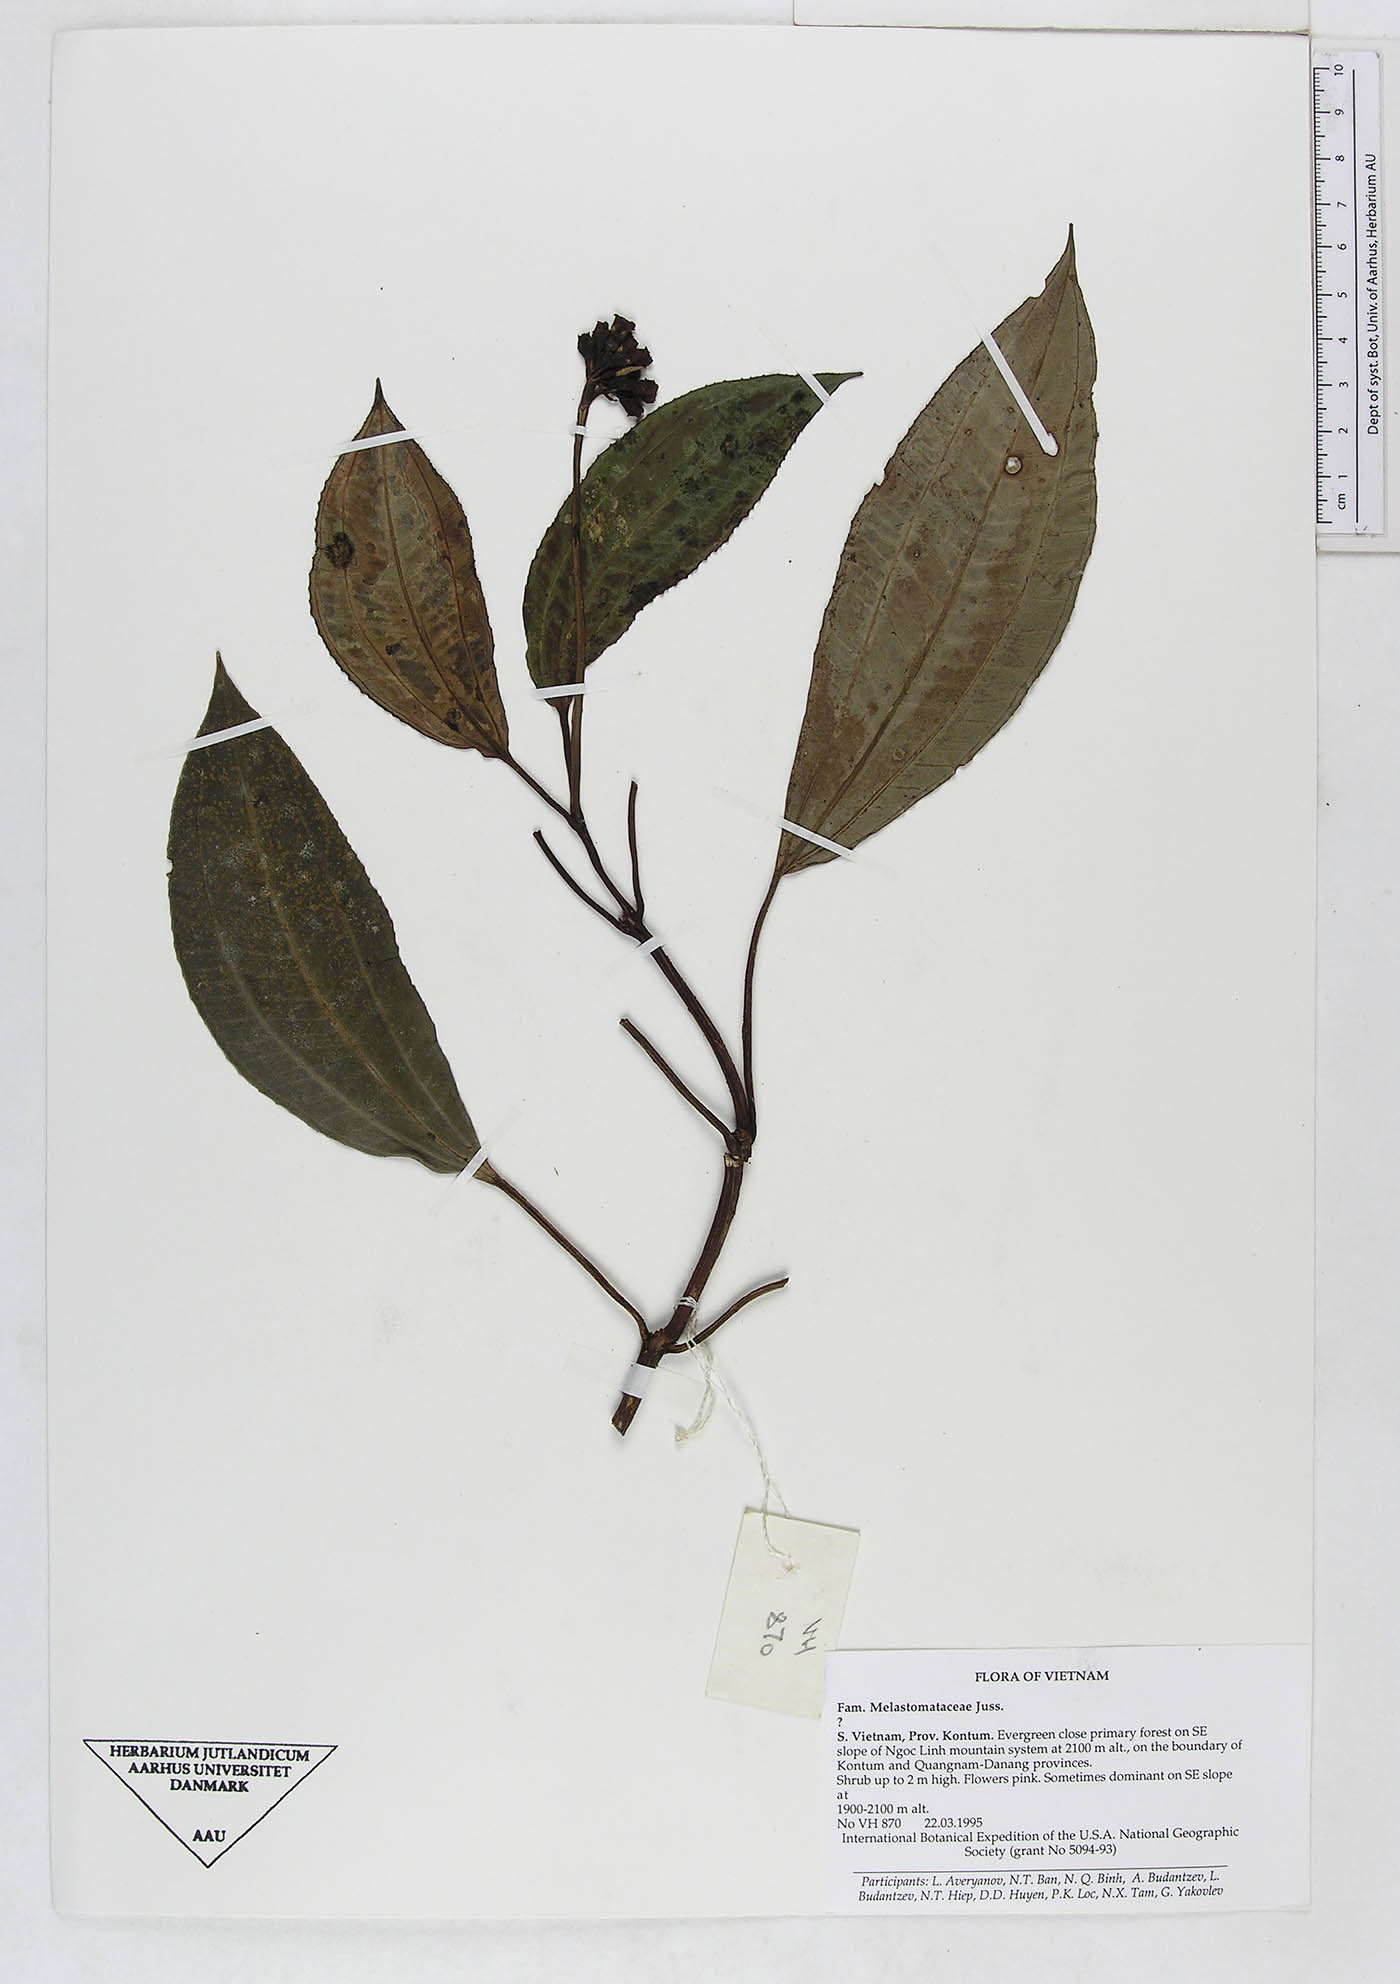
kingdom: Plantae
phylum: Tracheophyta
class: Magnoliopsida
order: Myrtales
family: Melastomataceae
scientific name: Melastomataceae
